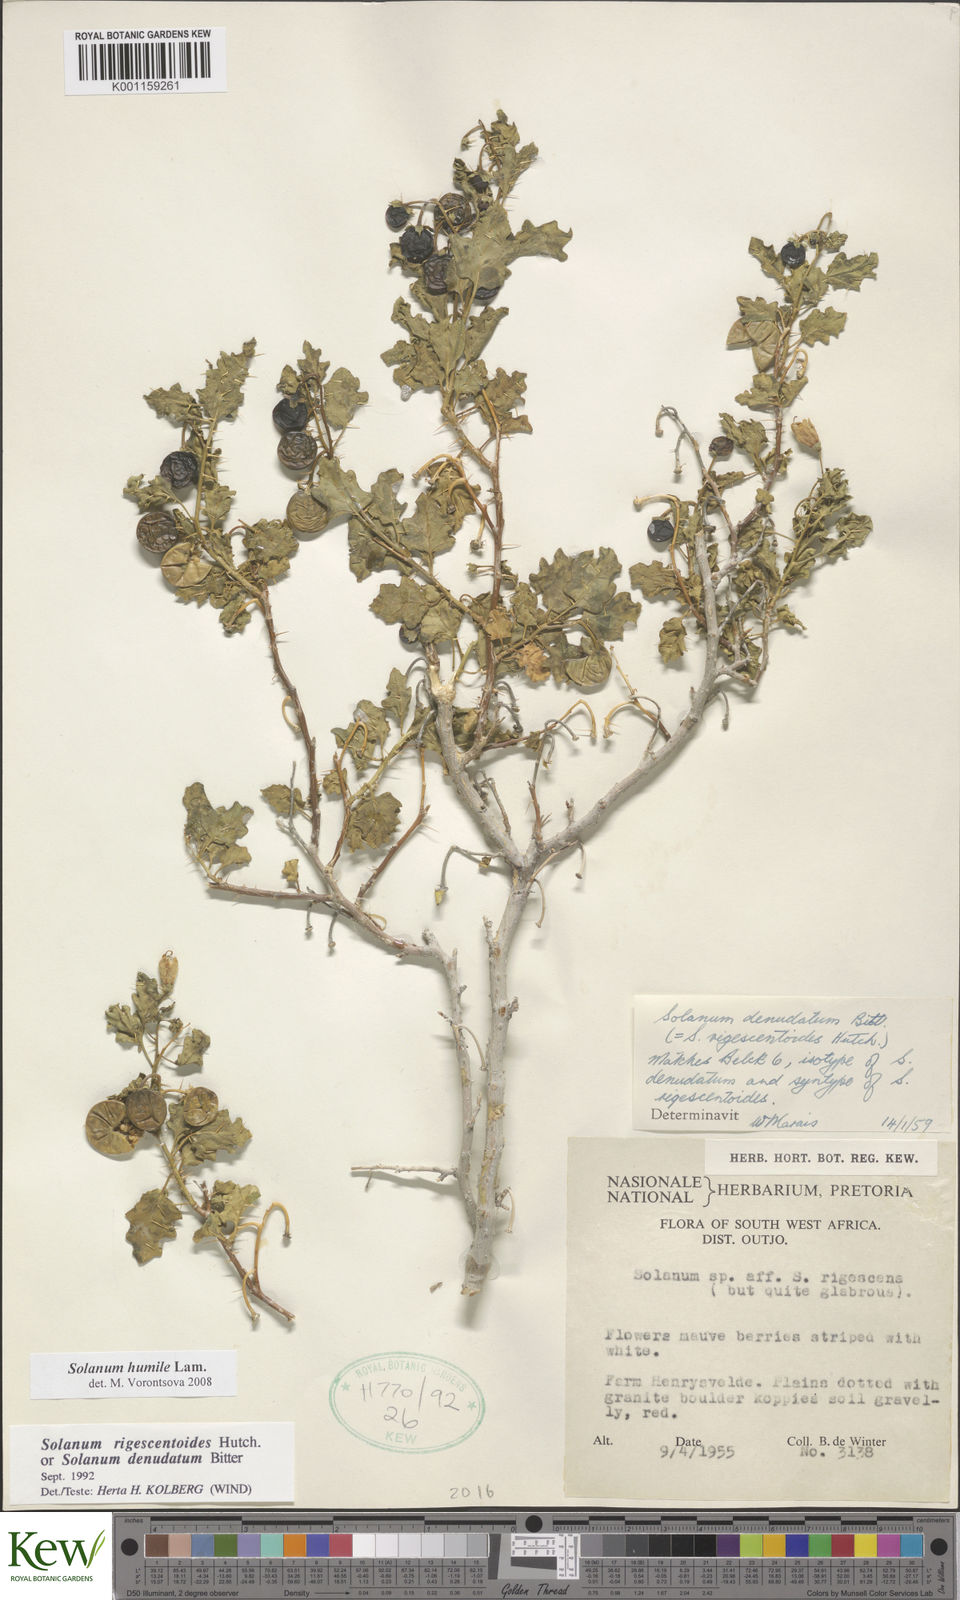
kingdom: Plantae
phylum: Tracheophyta
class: Magnoliopsida
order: Solanales
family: Solanaceae
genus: Solanum
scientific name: Solanum humile
